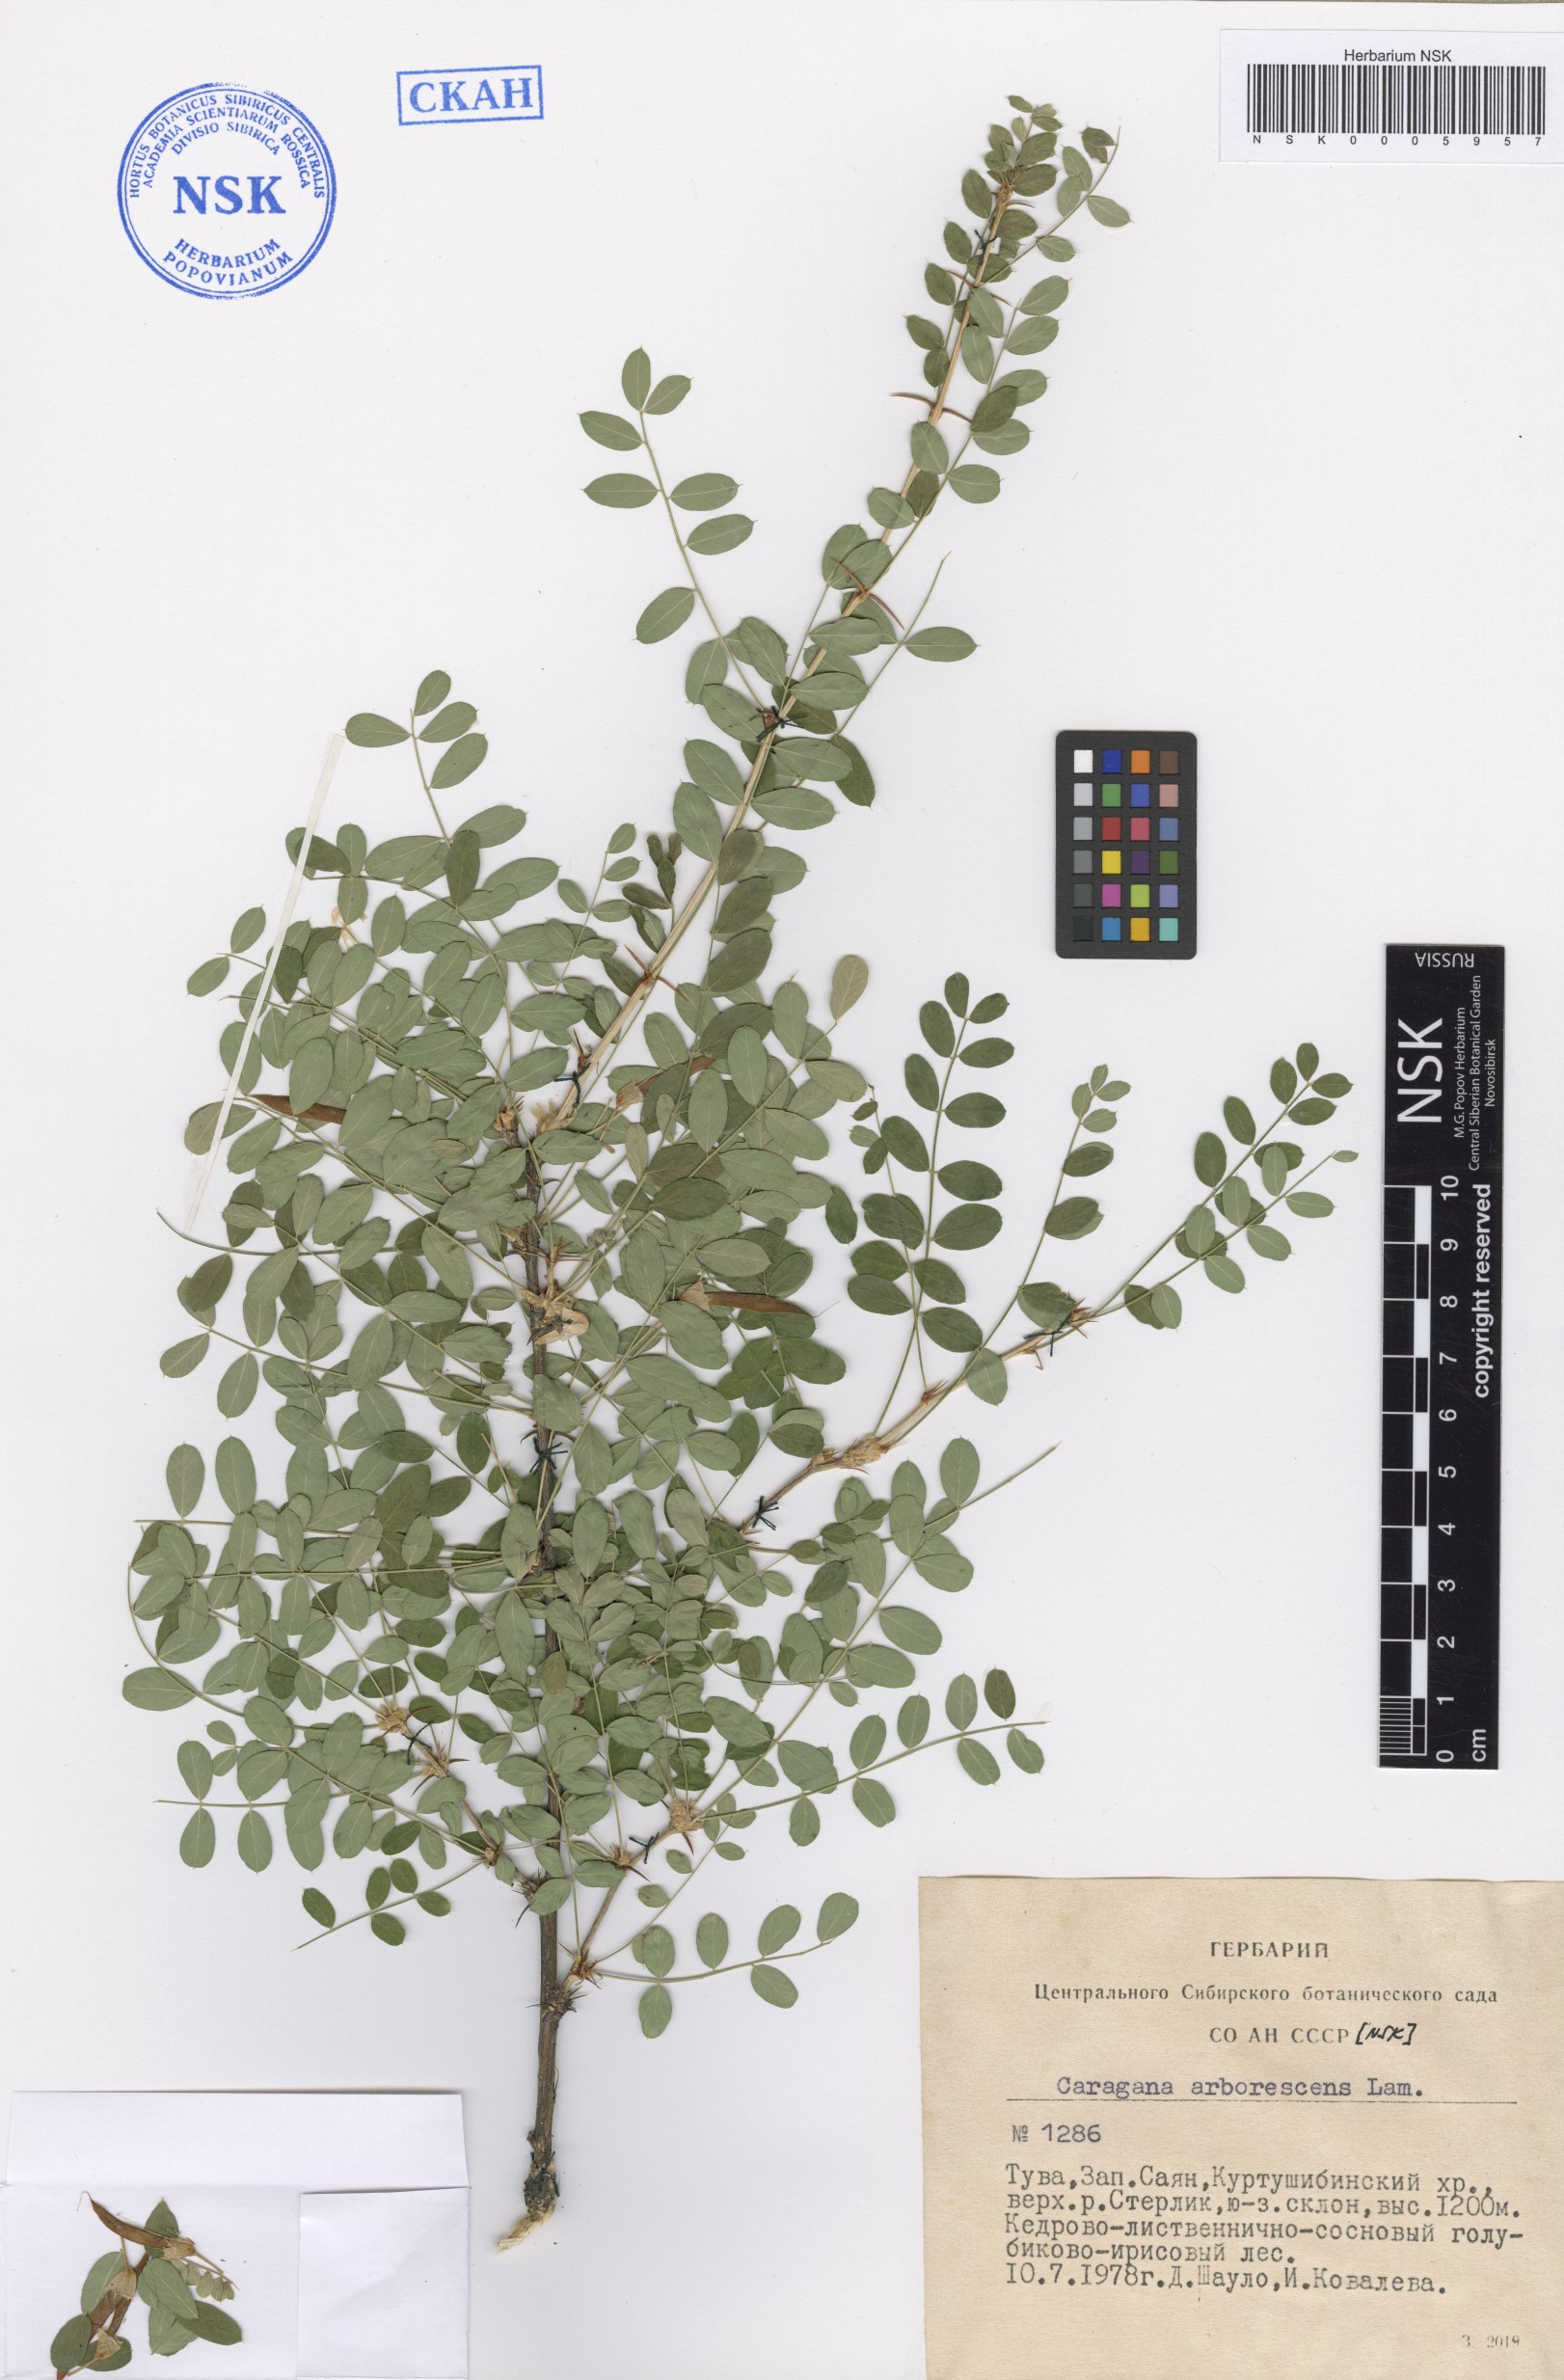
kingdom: Plantae
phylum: Tracheophyta
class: Magnoliopsida
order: Fabales
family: Fabaceae
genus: Caragana
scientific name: Caragana arborescens
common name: Siberian peashrub
